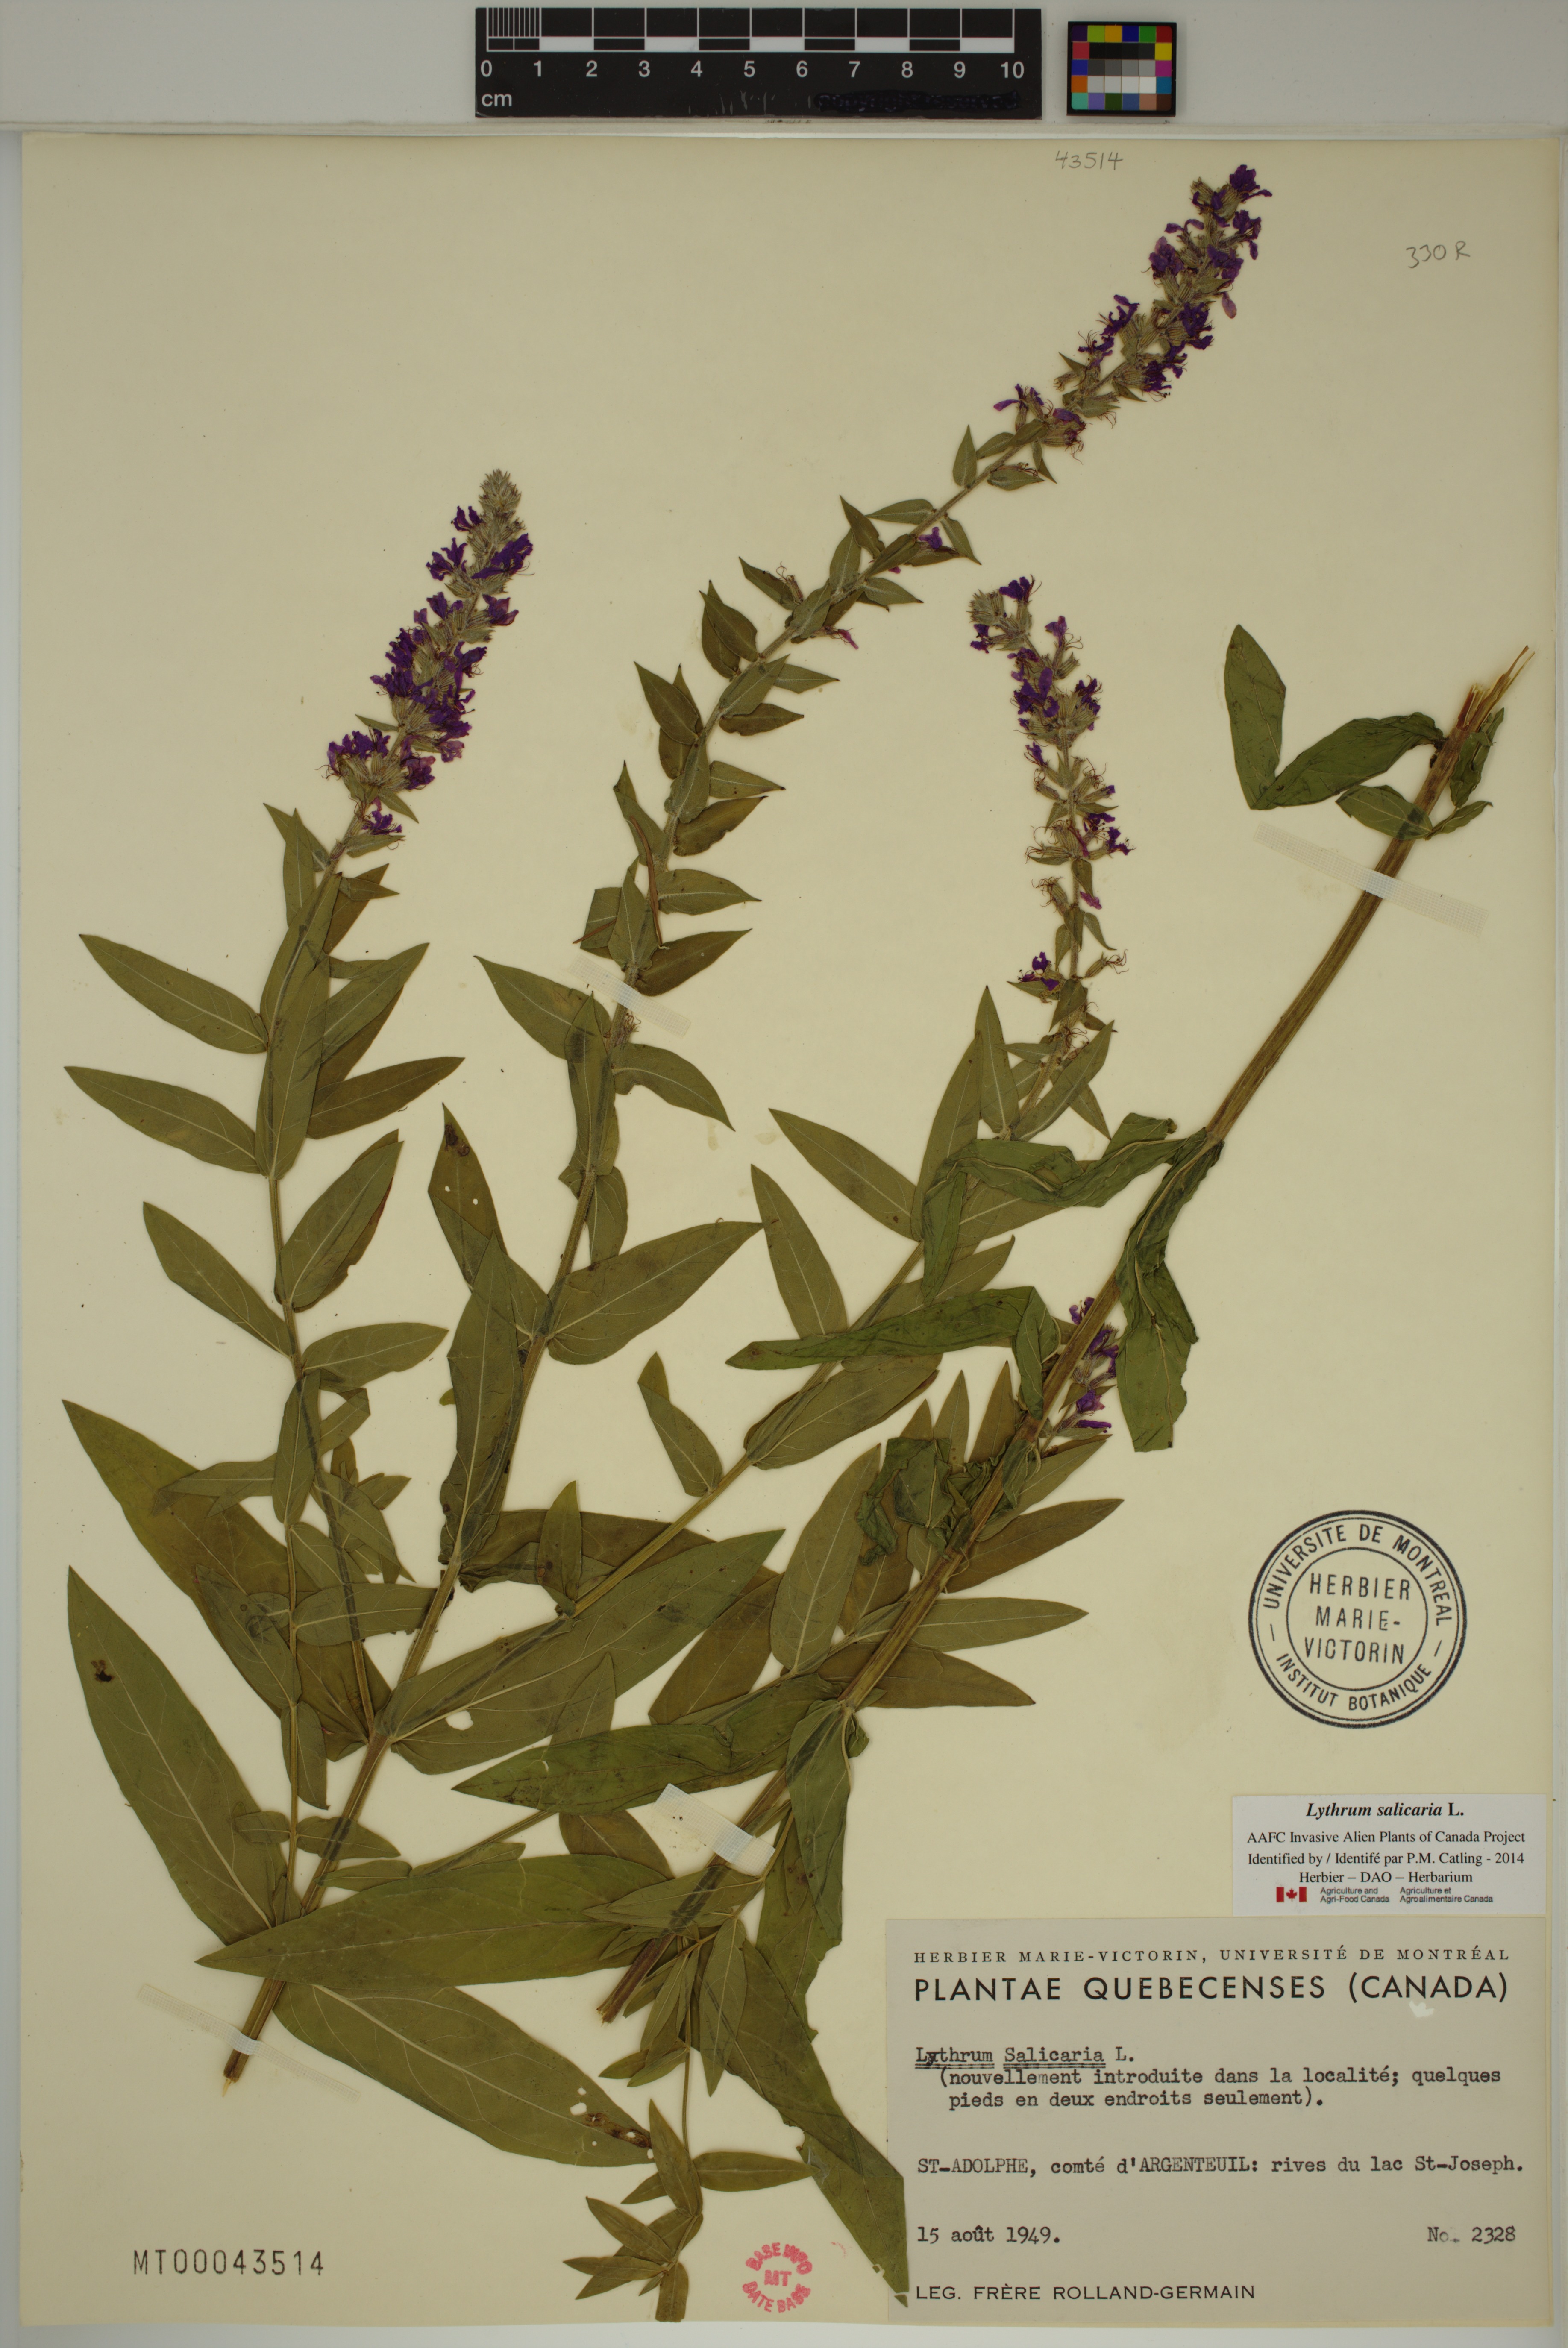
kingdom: Plantae
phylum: Tracheophyta
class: Magnoliopsida
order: Myrtales
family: Lythraceae
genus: Lythrum
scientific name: Lythrum salicaria
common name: Purple loosestrife
